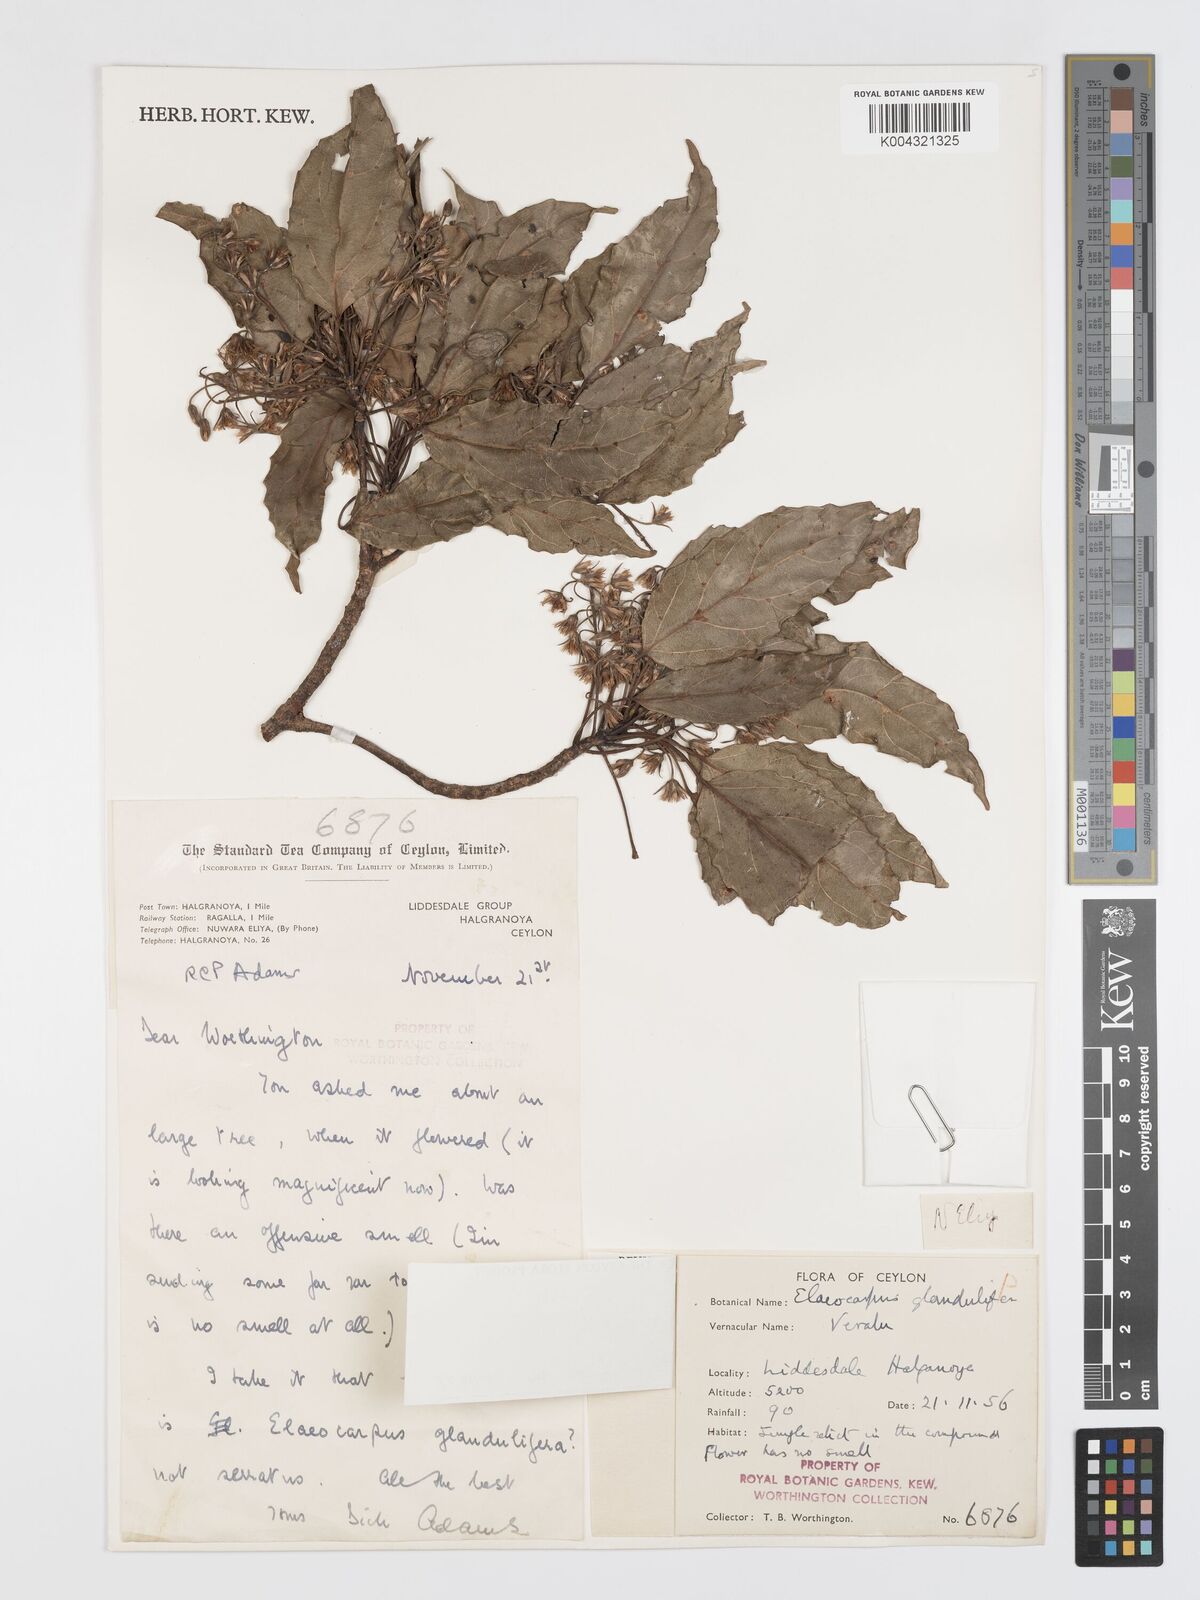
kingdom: Plantae
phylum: Tracheophyta
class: Magnoliopsida
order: Oxalidales
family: Elaeocarpaceae
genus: Elaeocarpus
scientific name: Elaeocarpus glandulifer
